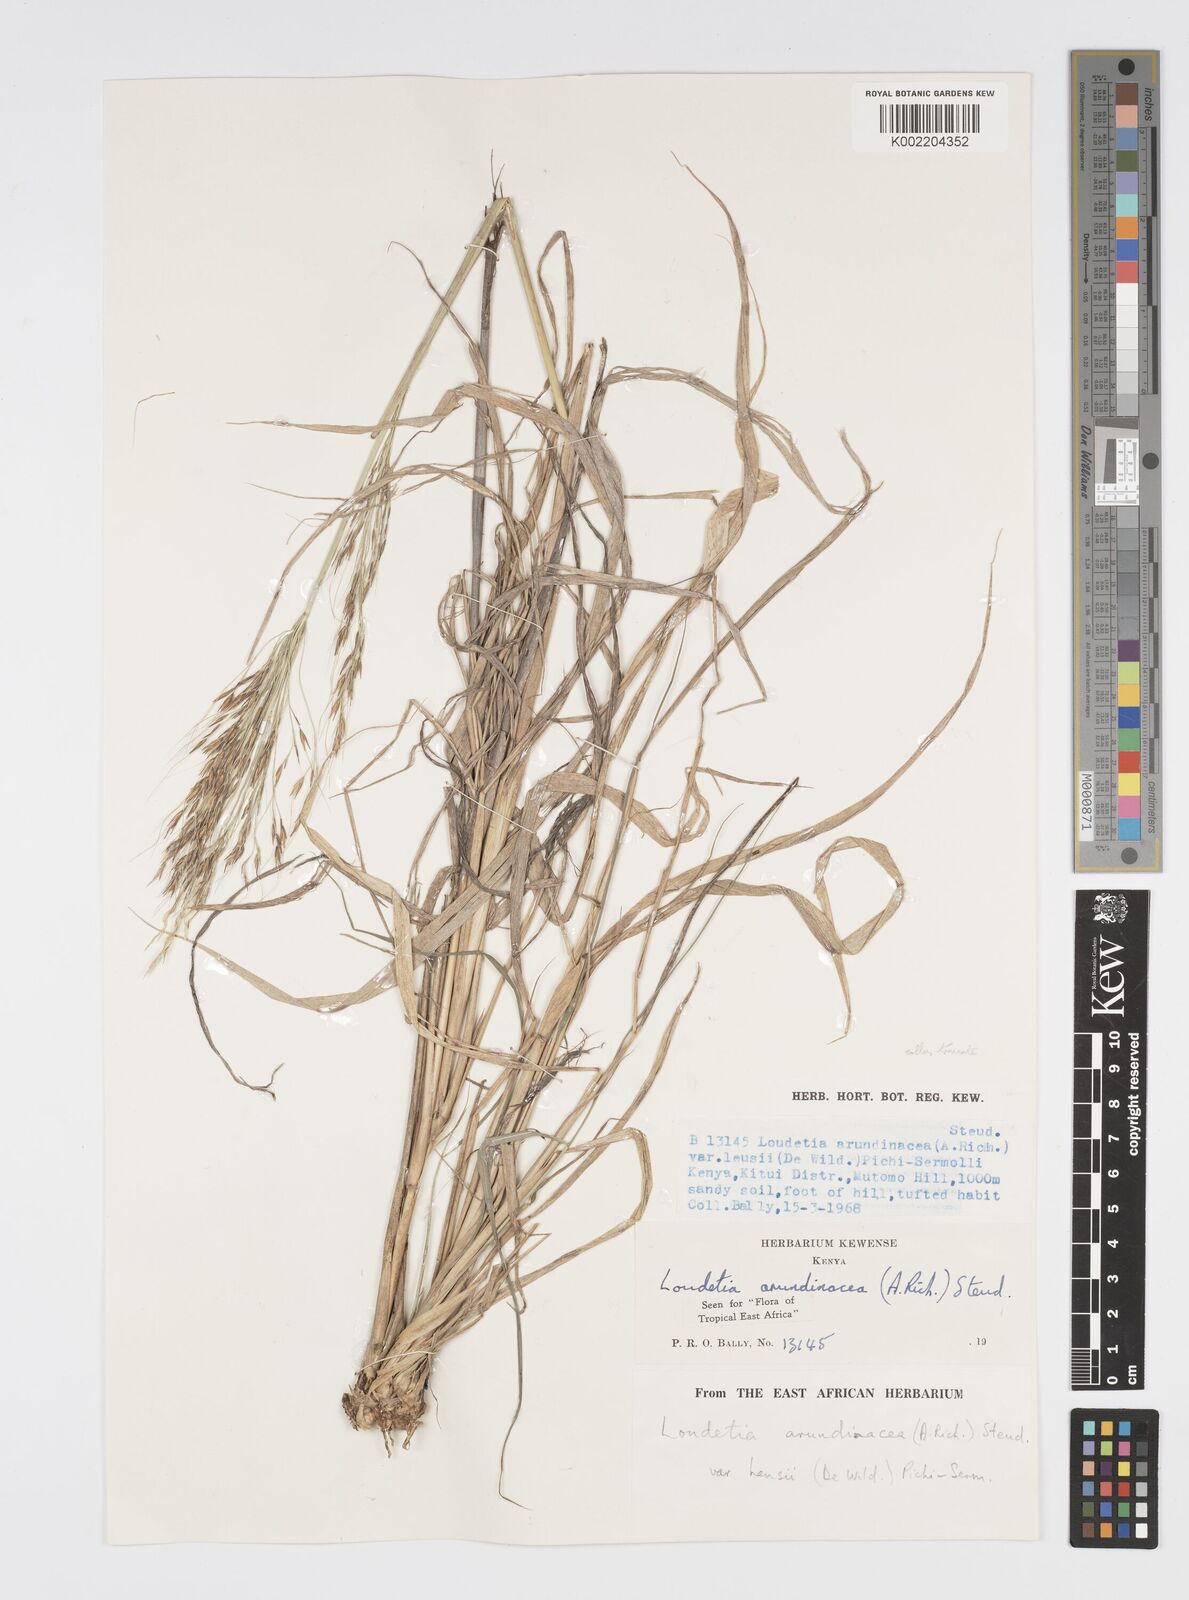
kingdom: Plantae
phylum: Tracheophyta
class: Liliopsida
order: Poales
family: Poaceae
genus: Loudetia
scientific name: Loudetia arundinacea
